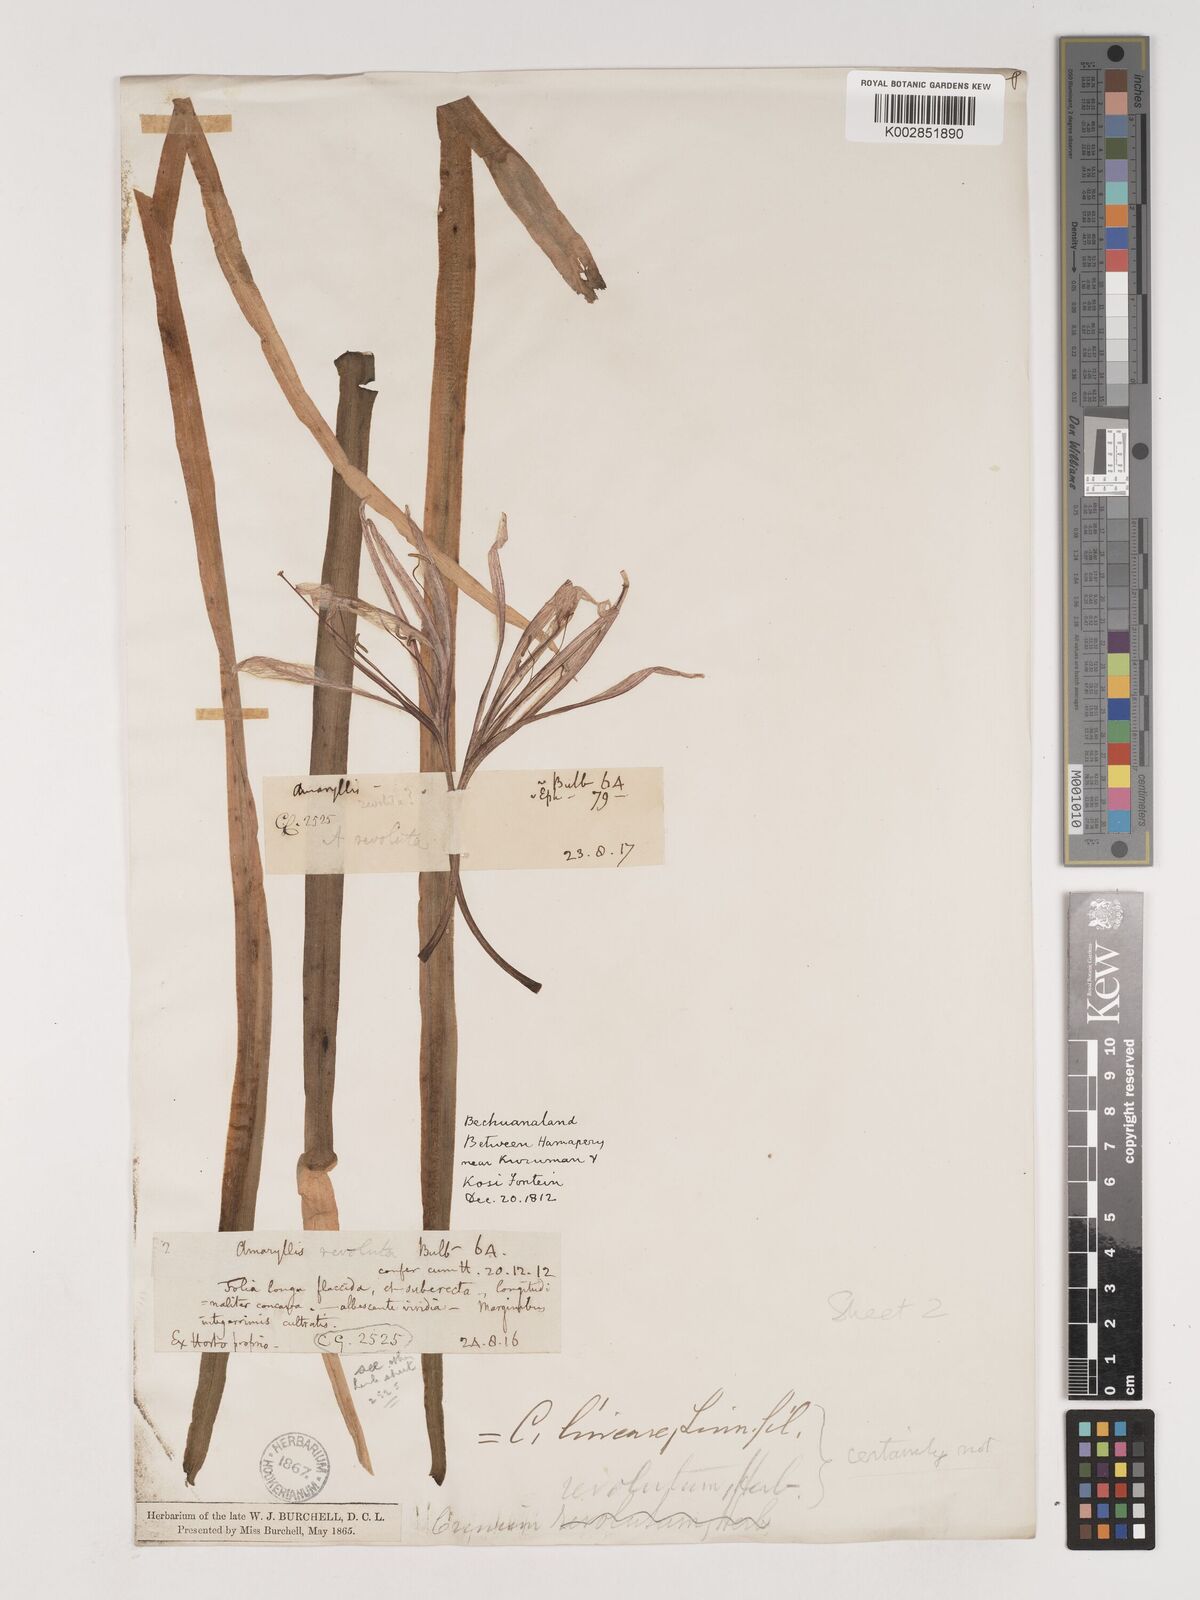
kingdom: Plantae
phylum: Tracheophyta
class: Liliopsida
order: Asparagales
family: Amaryllidaceae
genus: Crinum
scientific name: Crinum bulbispermum
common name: Hardy swamplily
